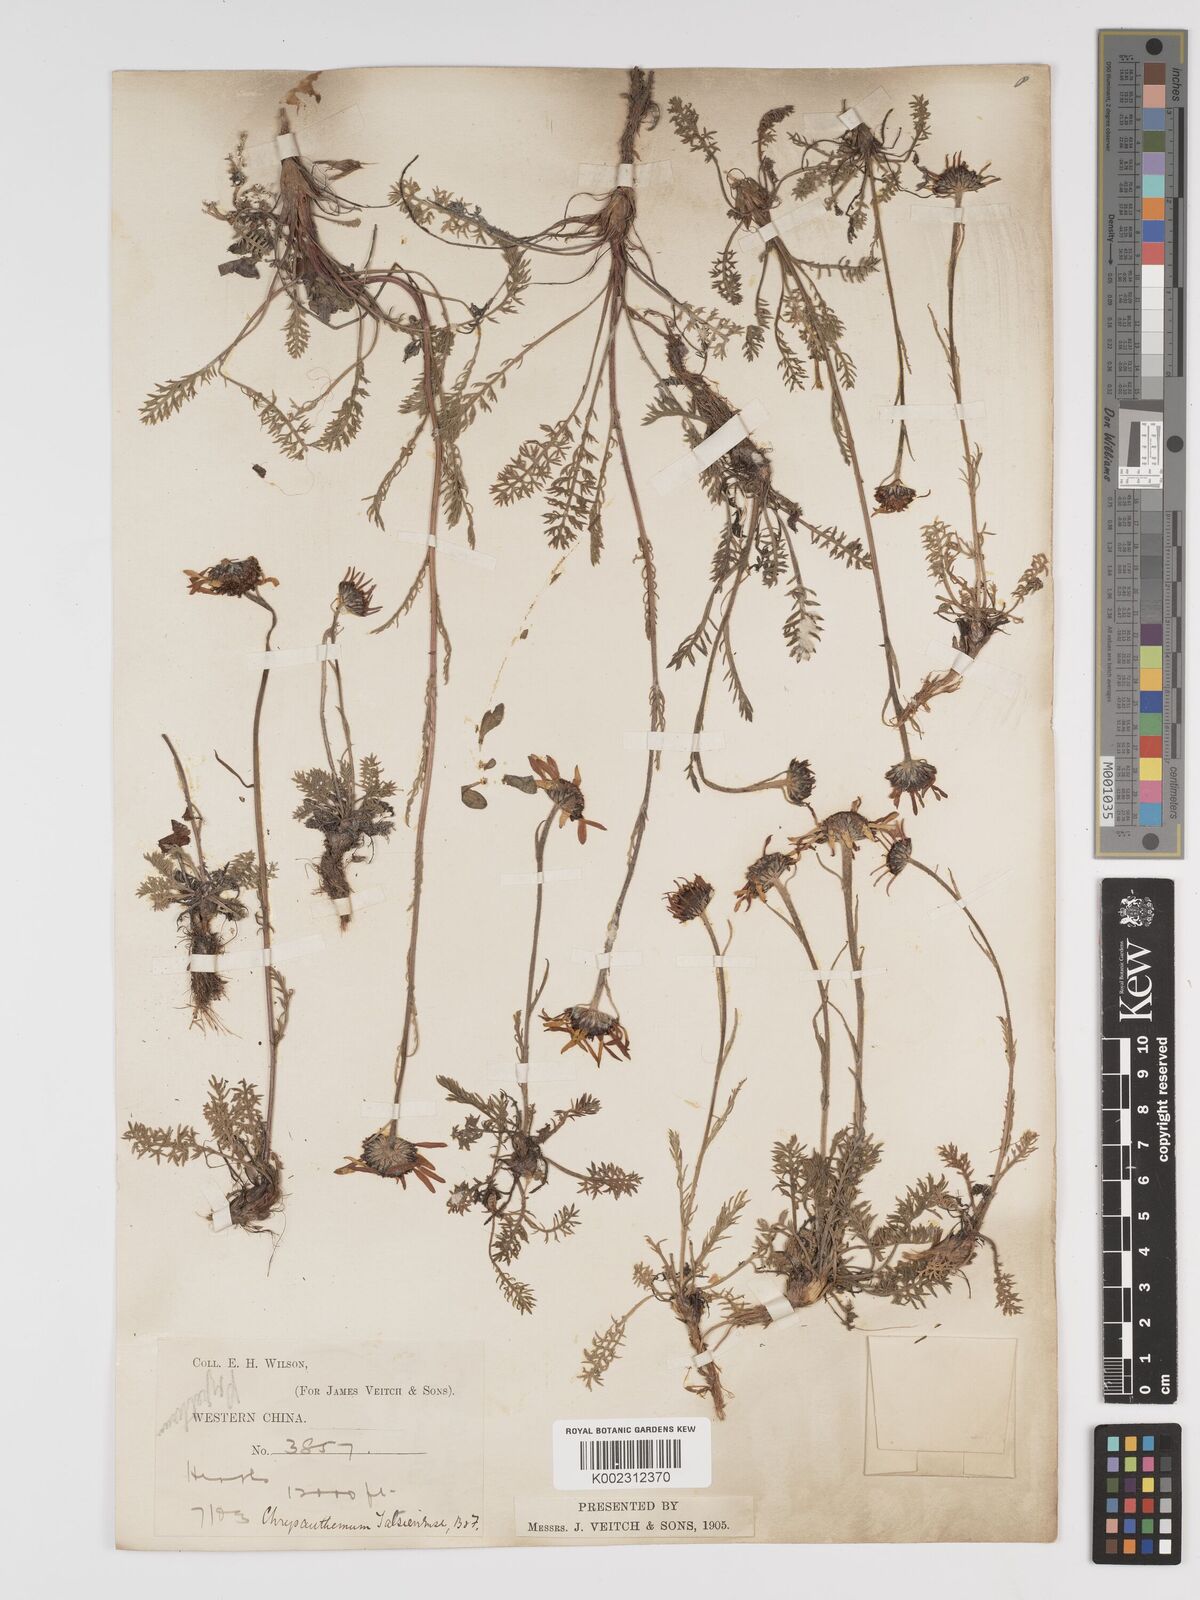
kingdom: Plantae
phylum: Tracheophyta
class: Magnoliopsida
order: Asterales
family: Asteraceae
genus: Tanacetum
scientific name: Tanacetum tatsienense
